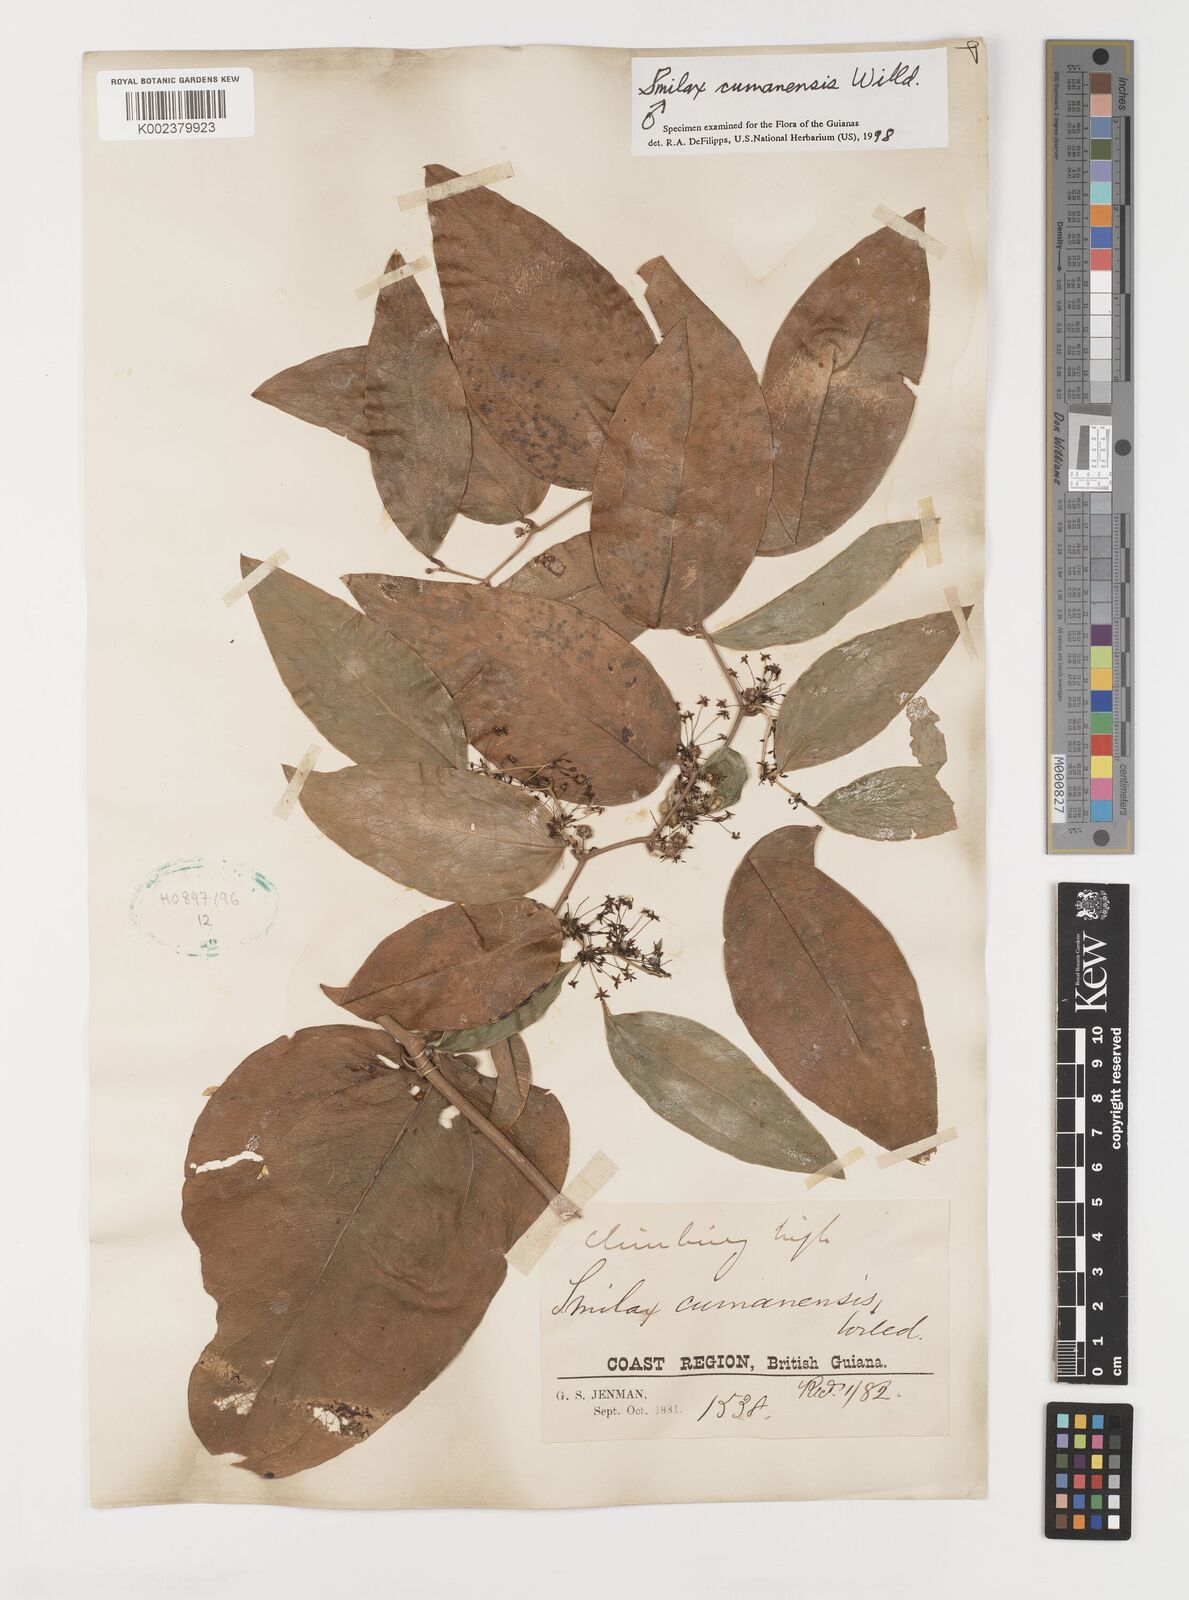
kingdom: Plantae
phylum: Tracheophyta
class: Liliopsida
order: Liliales
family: Smilacaceae
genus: Smilax
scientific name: Smilax oblongata
